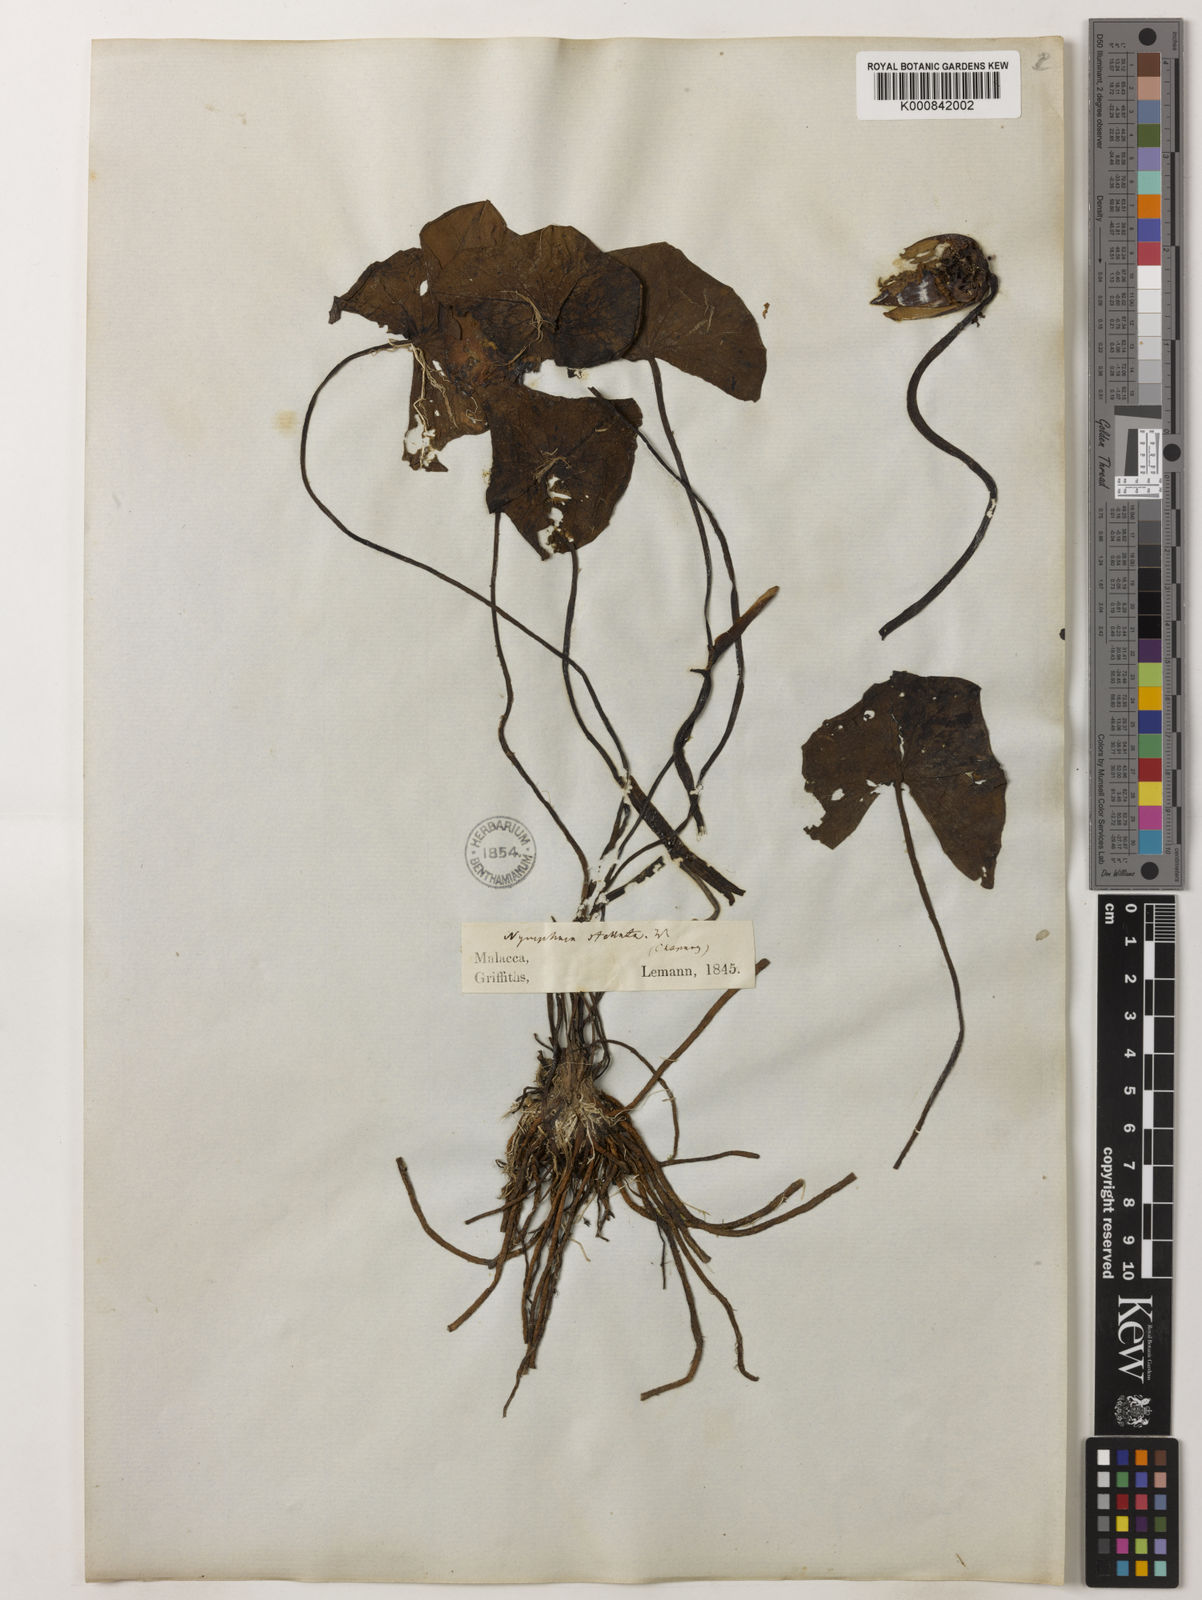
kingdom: Plantae
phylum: Tracheophyta
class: Magnoliopsida
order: Nymphaeales
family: Nymphaeaceae
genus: Nymphaea
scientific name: Nymphaea nouchali
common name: Blue lotus
